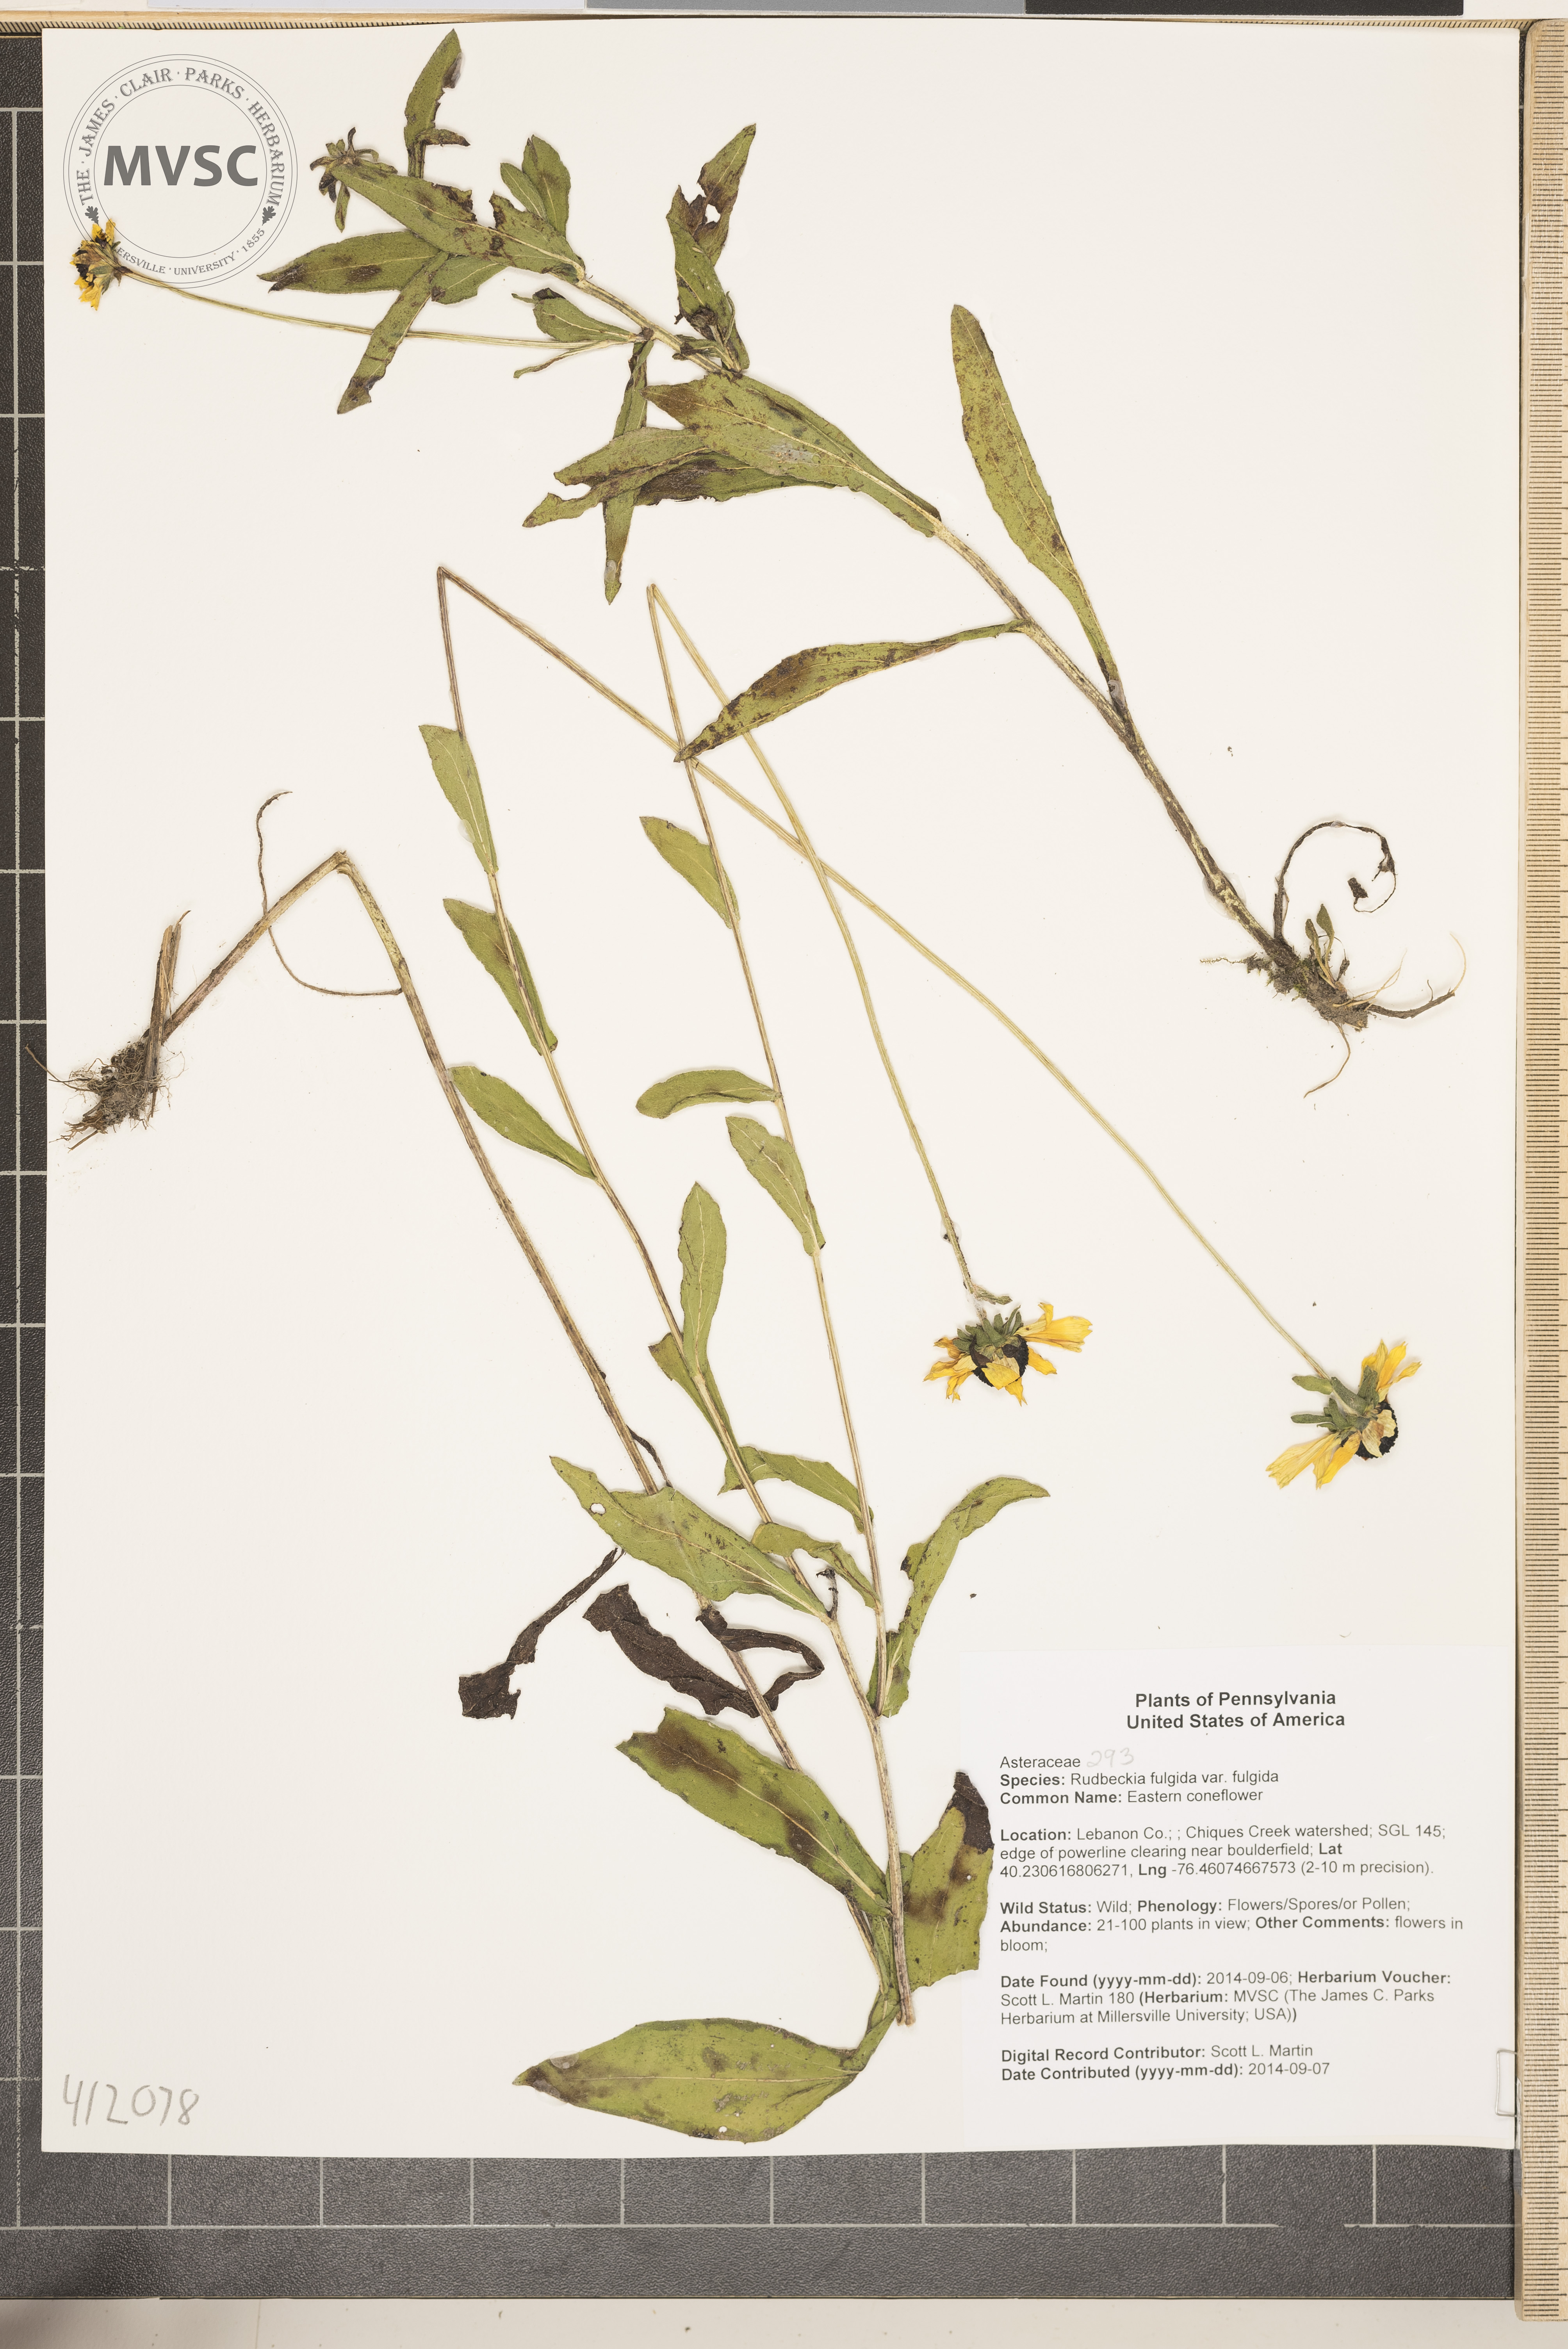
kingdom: Plantae
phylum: Tracheophyta
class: Magnoliopsida
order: Asterales
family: Asteraceae
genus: Rudbeckia
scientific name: Rudbeckia fulgida
